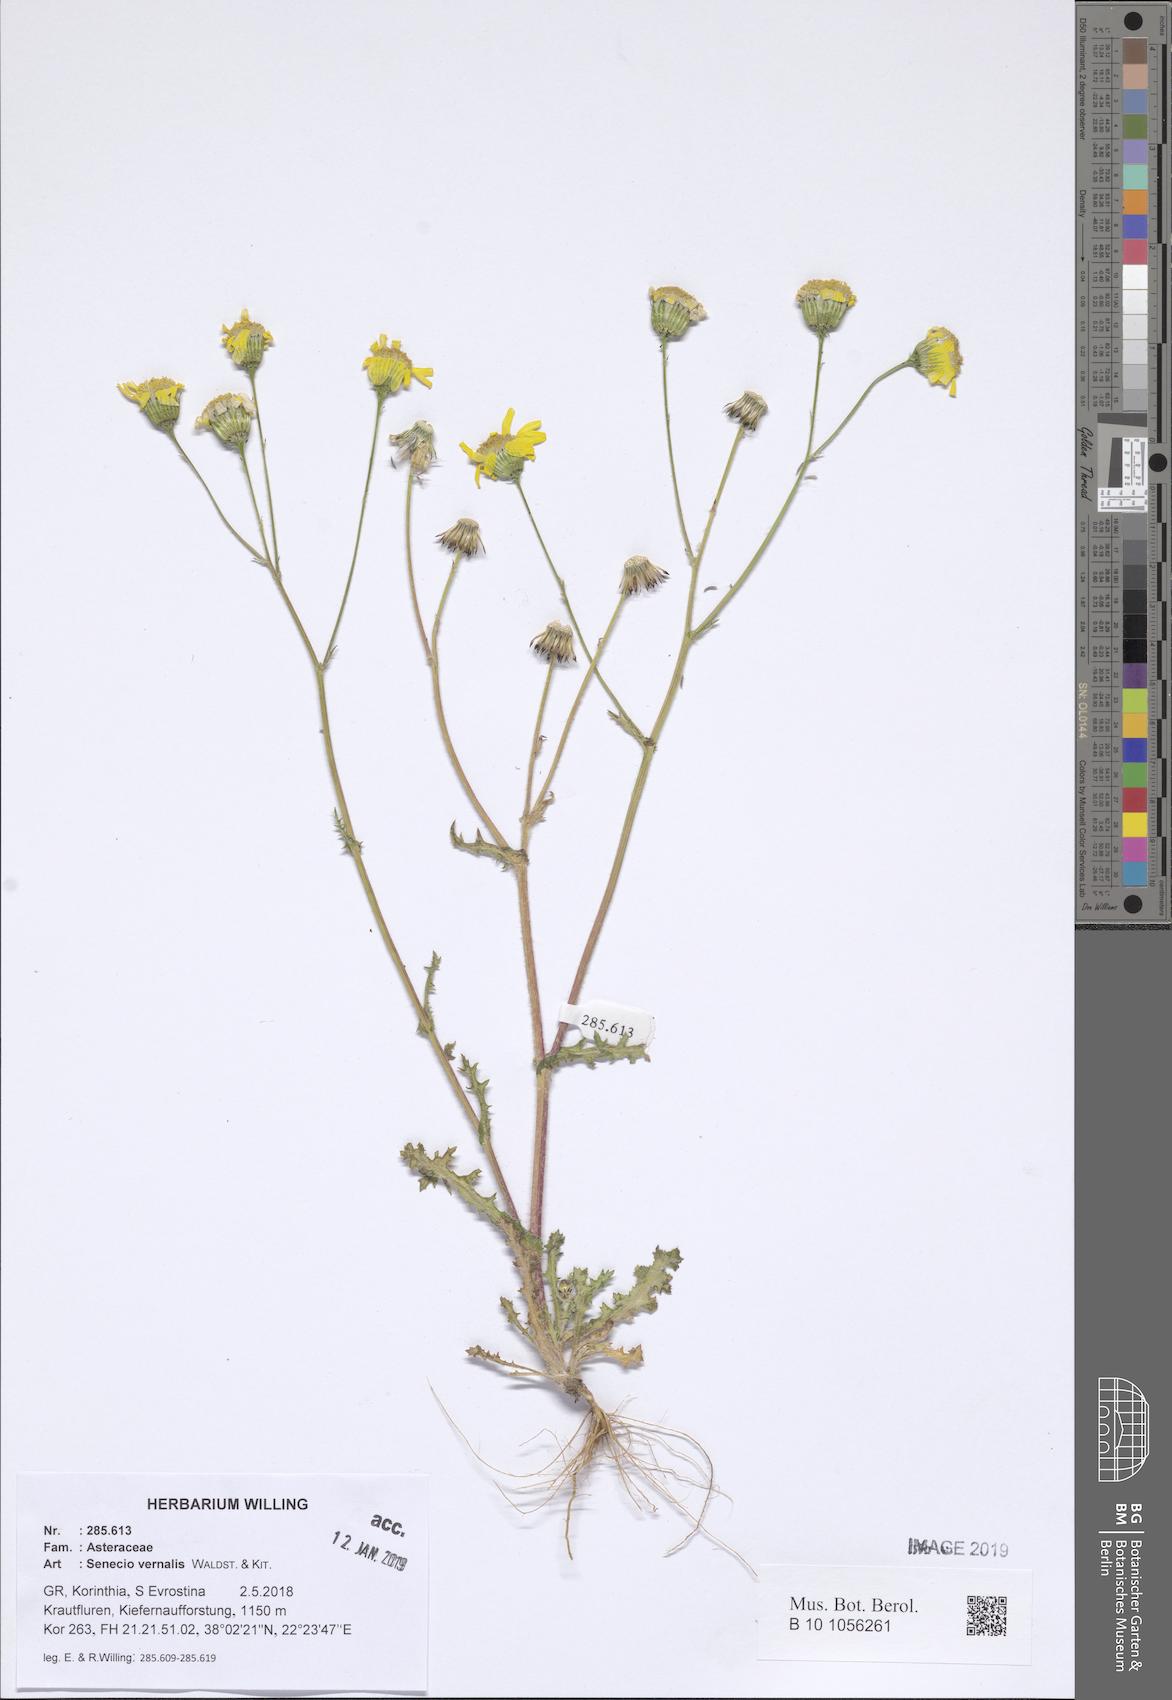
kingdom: Plantae
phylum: Tracheophyta
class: Magnoliopsida
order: Asterales
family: Asteraceae
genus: Senecio
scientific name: Senecio vernalis
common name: Eastern groundsel
